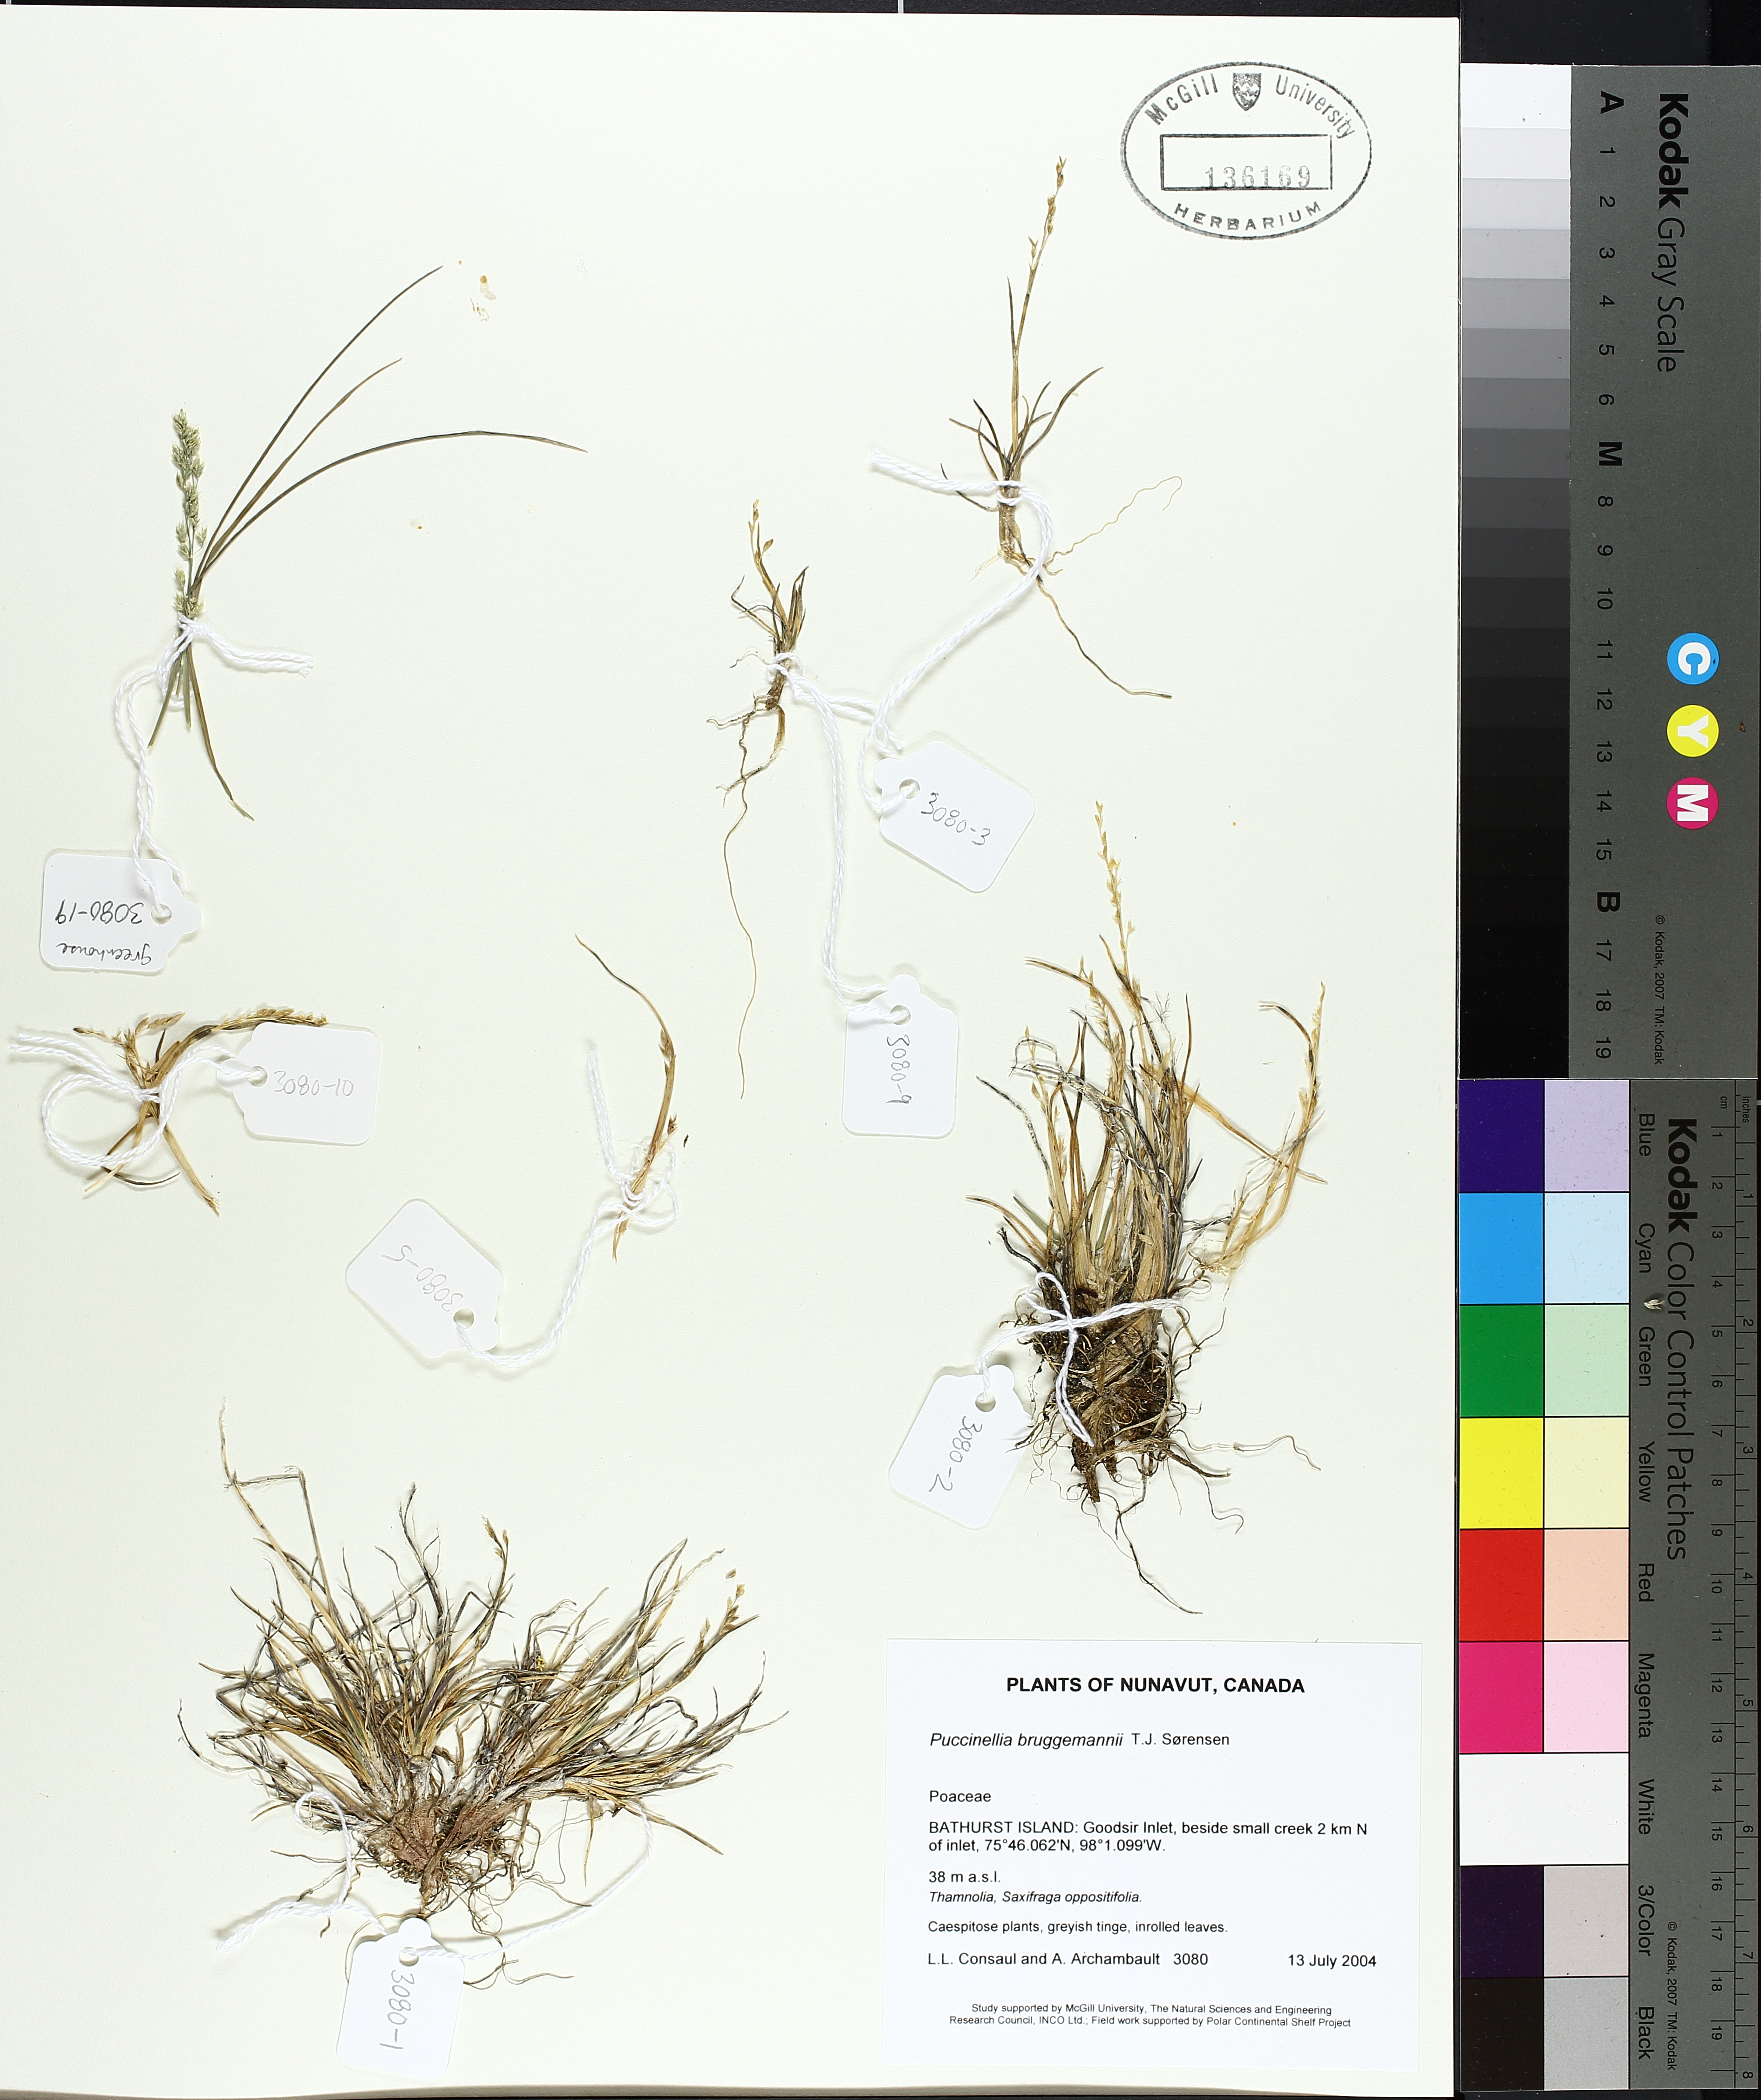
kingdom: Plantae
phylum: Tracheophyta
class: Liliopsida
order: Poales
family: Poaceae
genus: Puccinellia
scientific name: Puccinellia bruggemannii
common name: Bruggemann's alkaligrass
